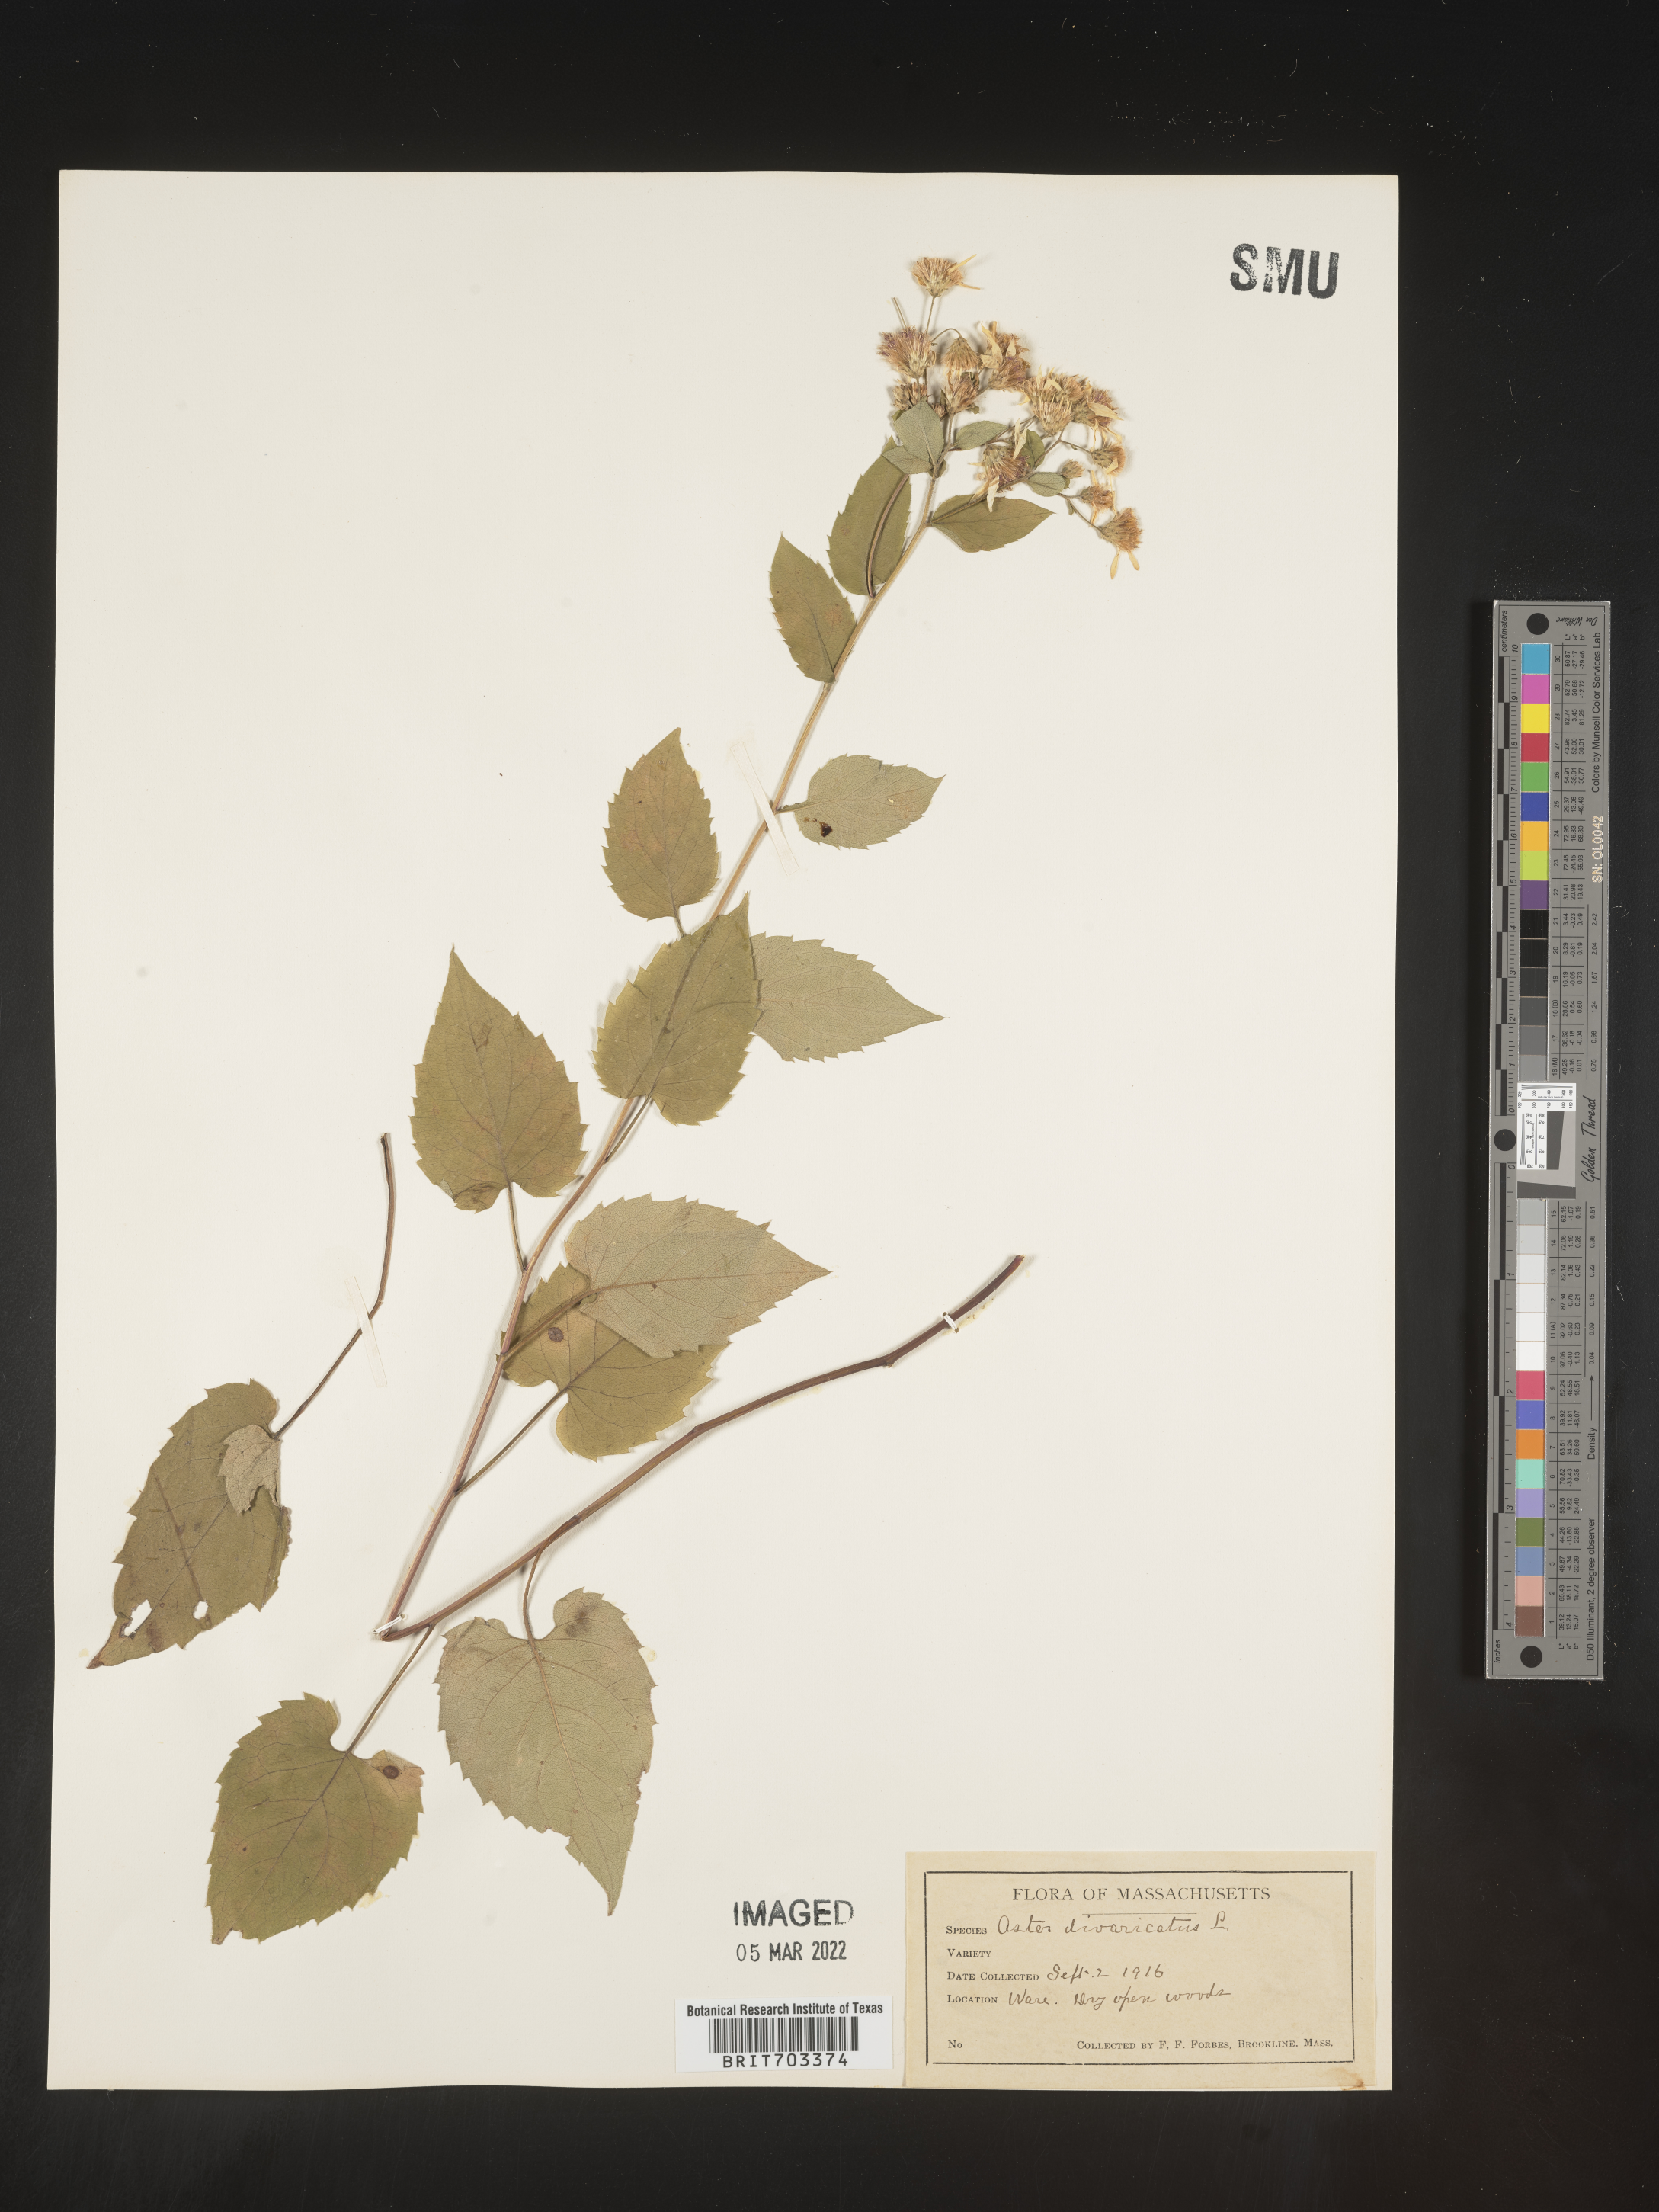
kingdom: Plantae
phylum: Tracheophyta
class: Magnoliopsida
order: Asterales
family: Asteraceae
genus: Eurybia
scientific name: Eurybia divaricata
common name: White wood aster
